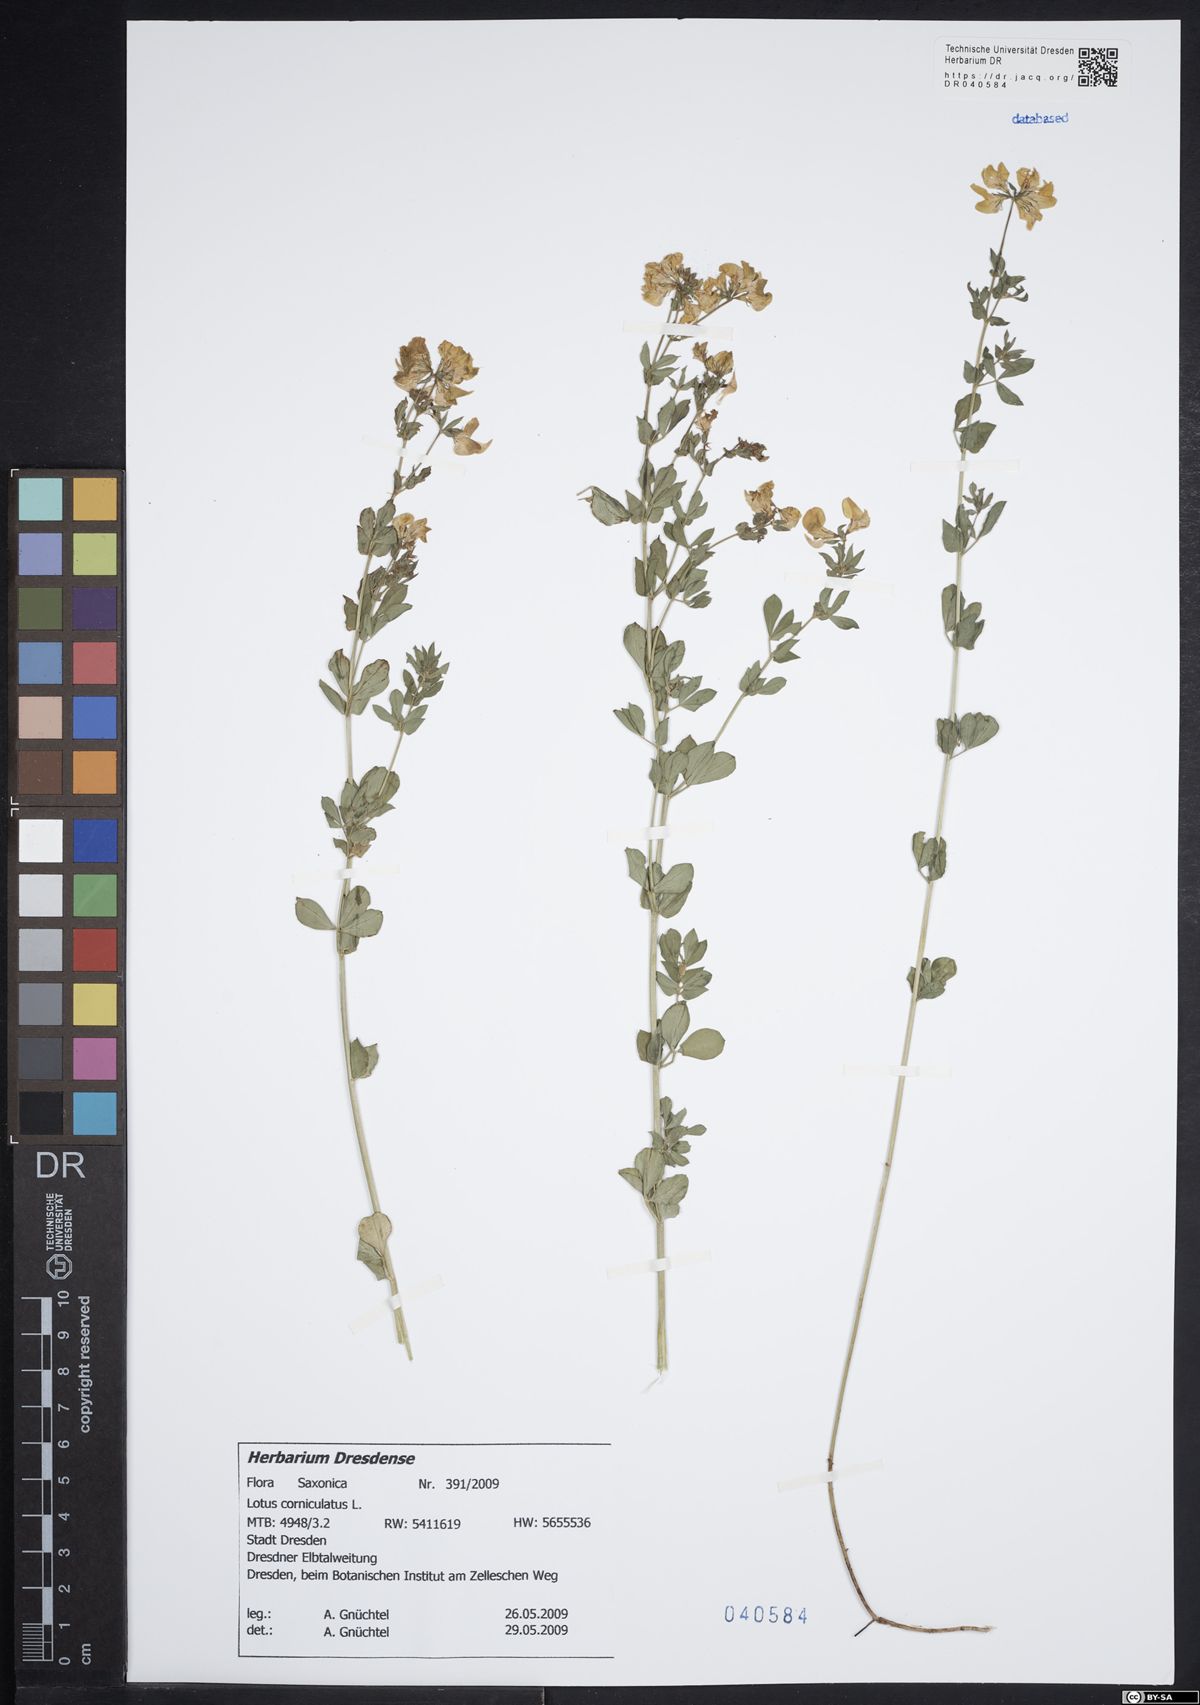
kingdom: Plantae
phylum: Tracheophyta
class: Magnoliopsida
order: Fabales
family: Fabaceae
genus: Lotus
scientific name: Lotus corniculatus
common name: Common bird's-foot-trefoil
